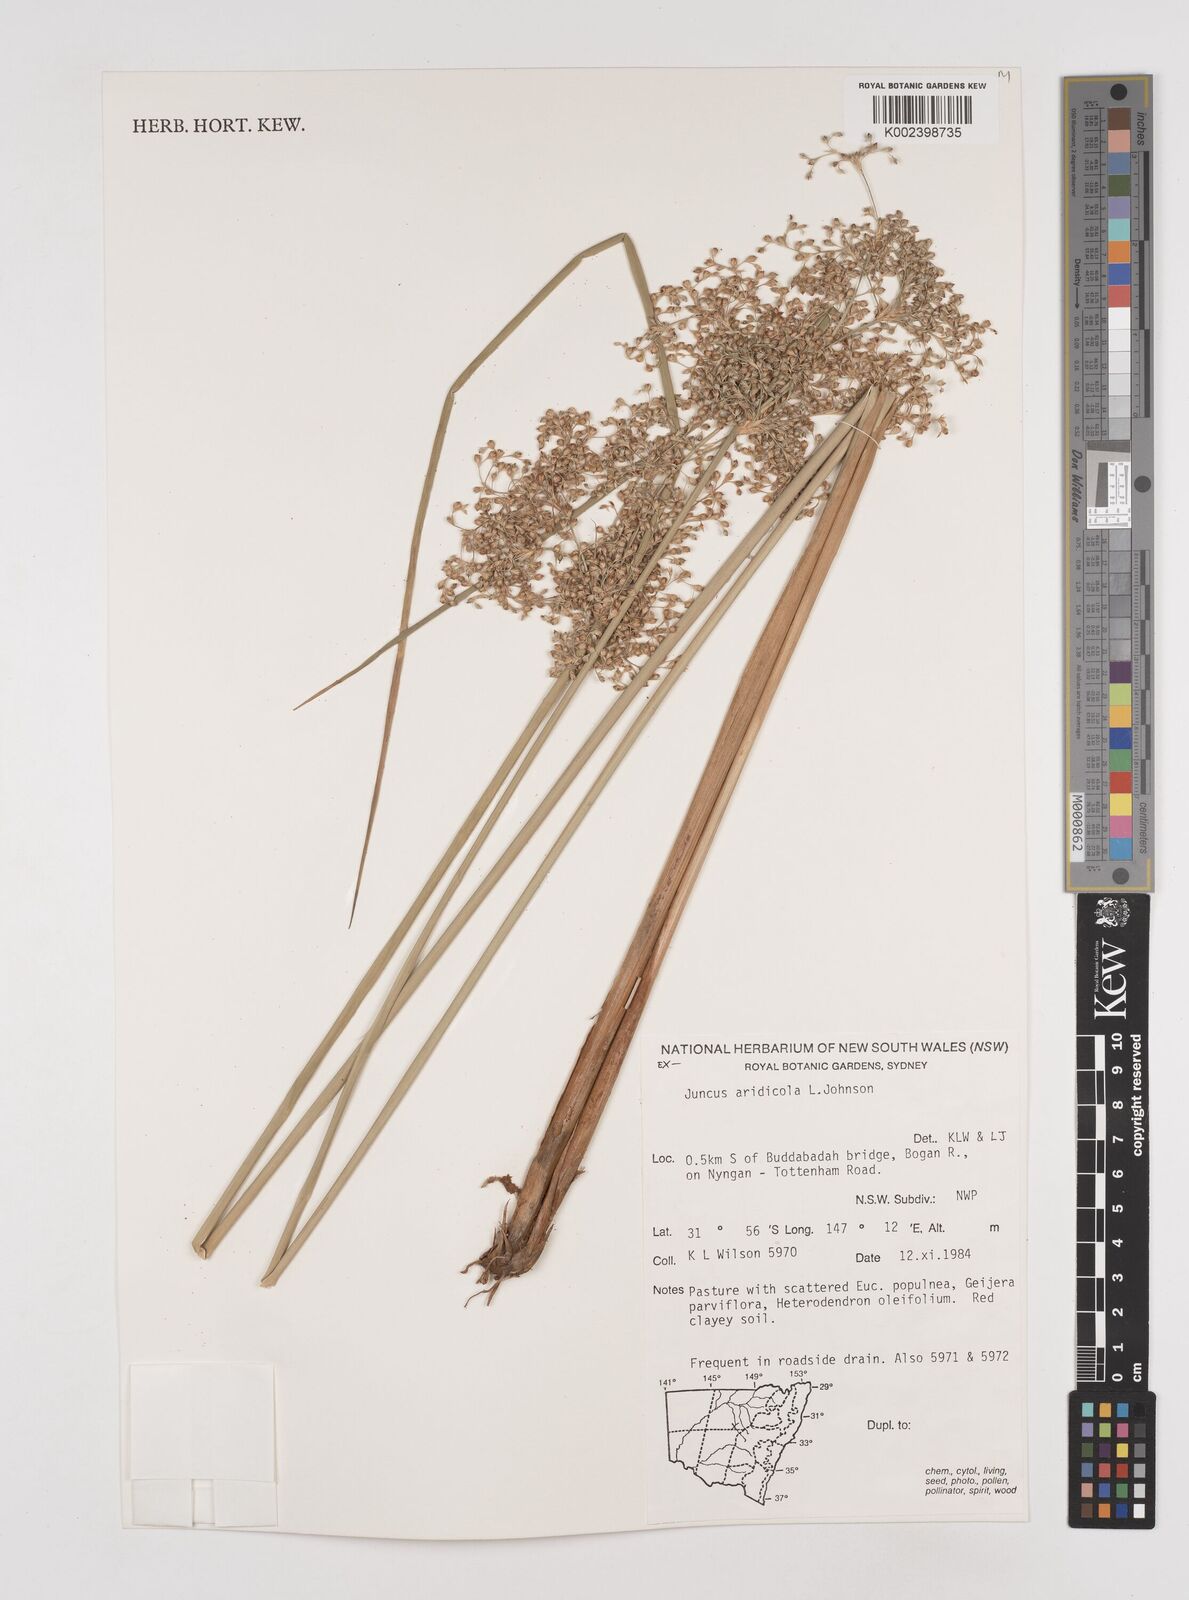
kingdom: Plantae
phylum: Tracheophyta
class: Liliopsida
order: Poales
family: Juncaceae
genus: Juncus
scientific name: Juncus aridicola
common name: Tussock rush
